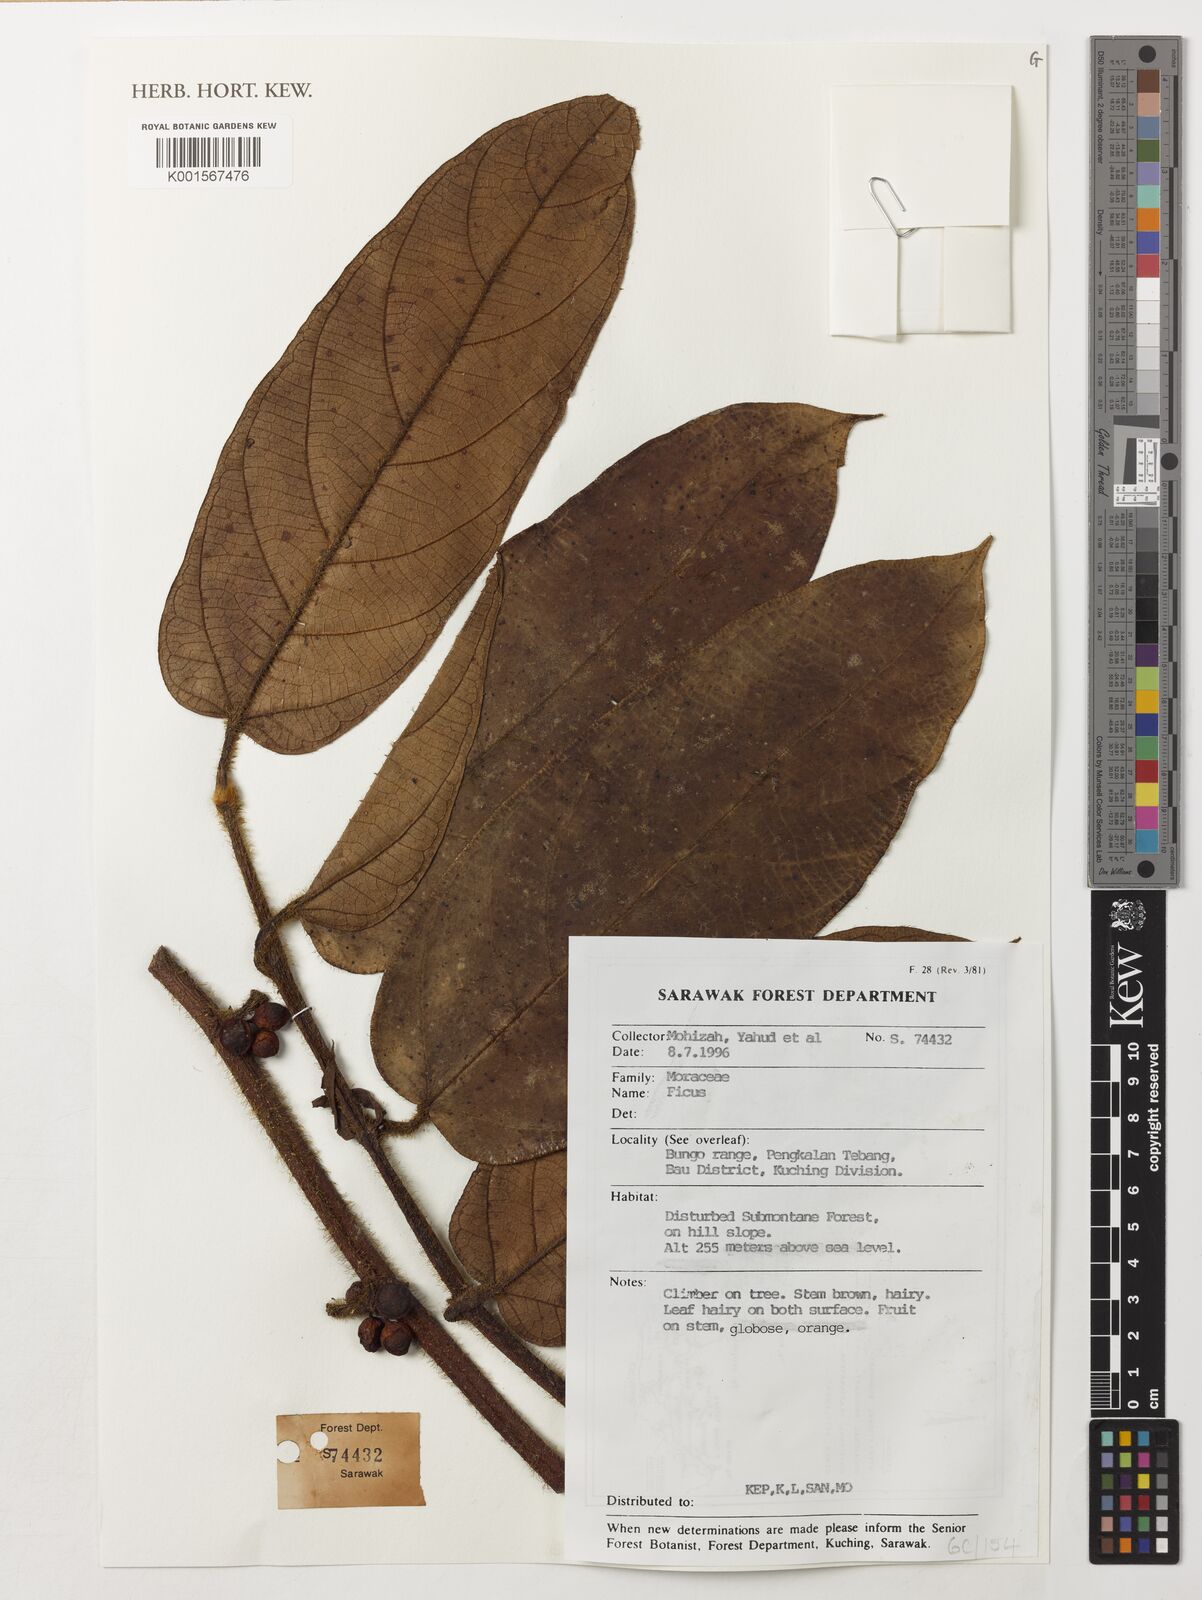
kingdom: Plantae
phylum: Tracheophyta
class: Magnoliopsida
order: Rosales
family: Moraceae
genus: Ficus
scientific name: Ficus
